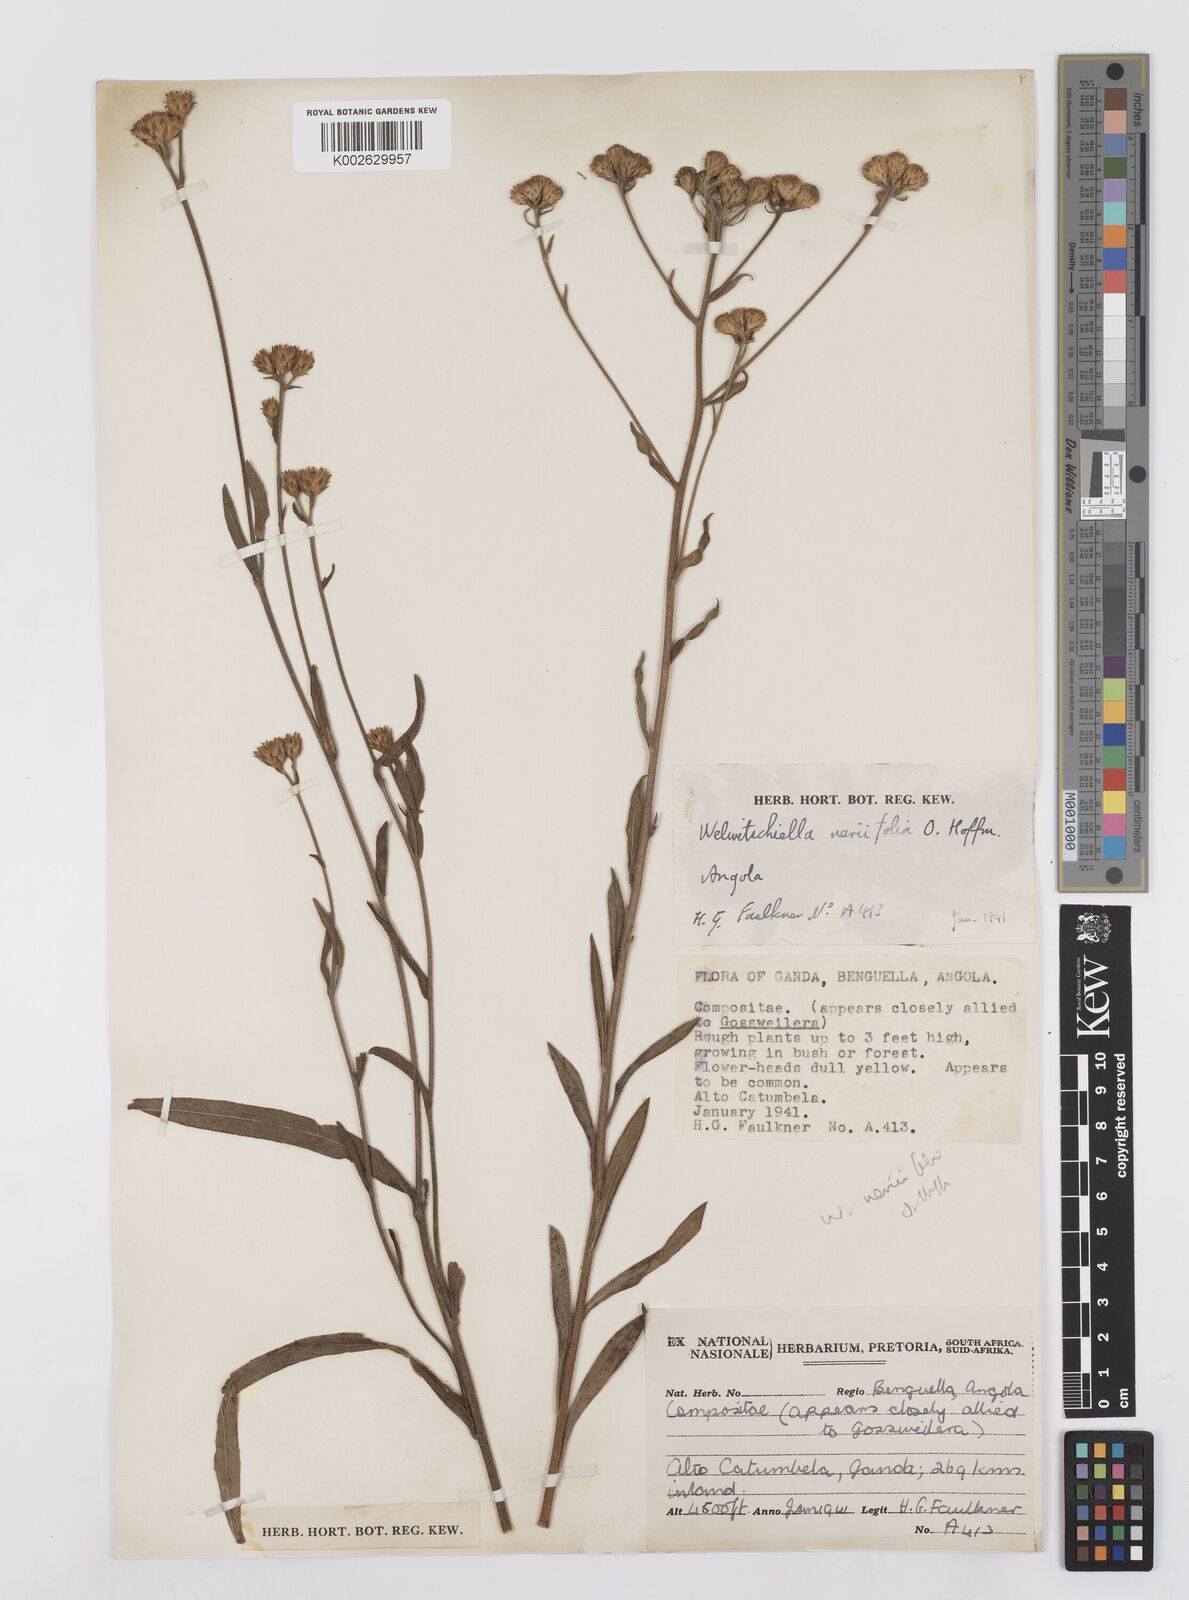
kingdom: Plantae
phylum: Tracheophyta
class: Magnoliopsida
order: Asterales
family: Asteraceae
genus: Welwitschiella
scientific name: Welwitschiella neriifolia
